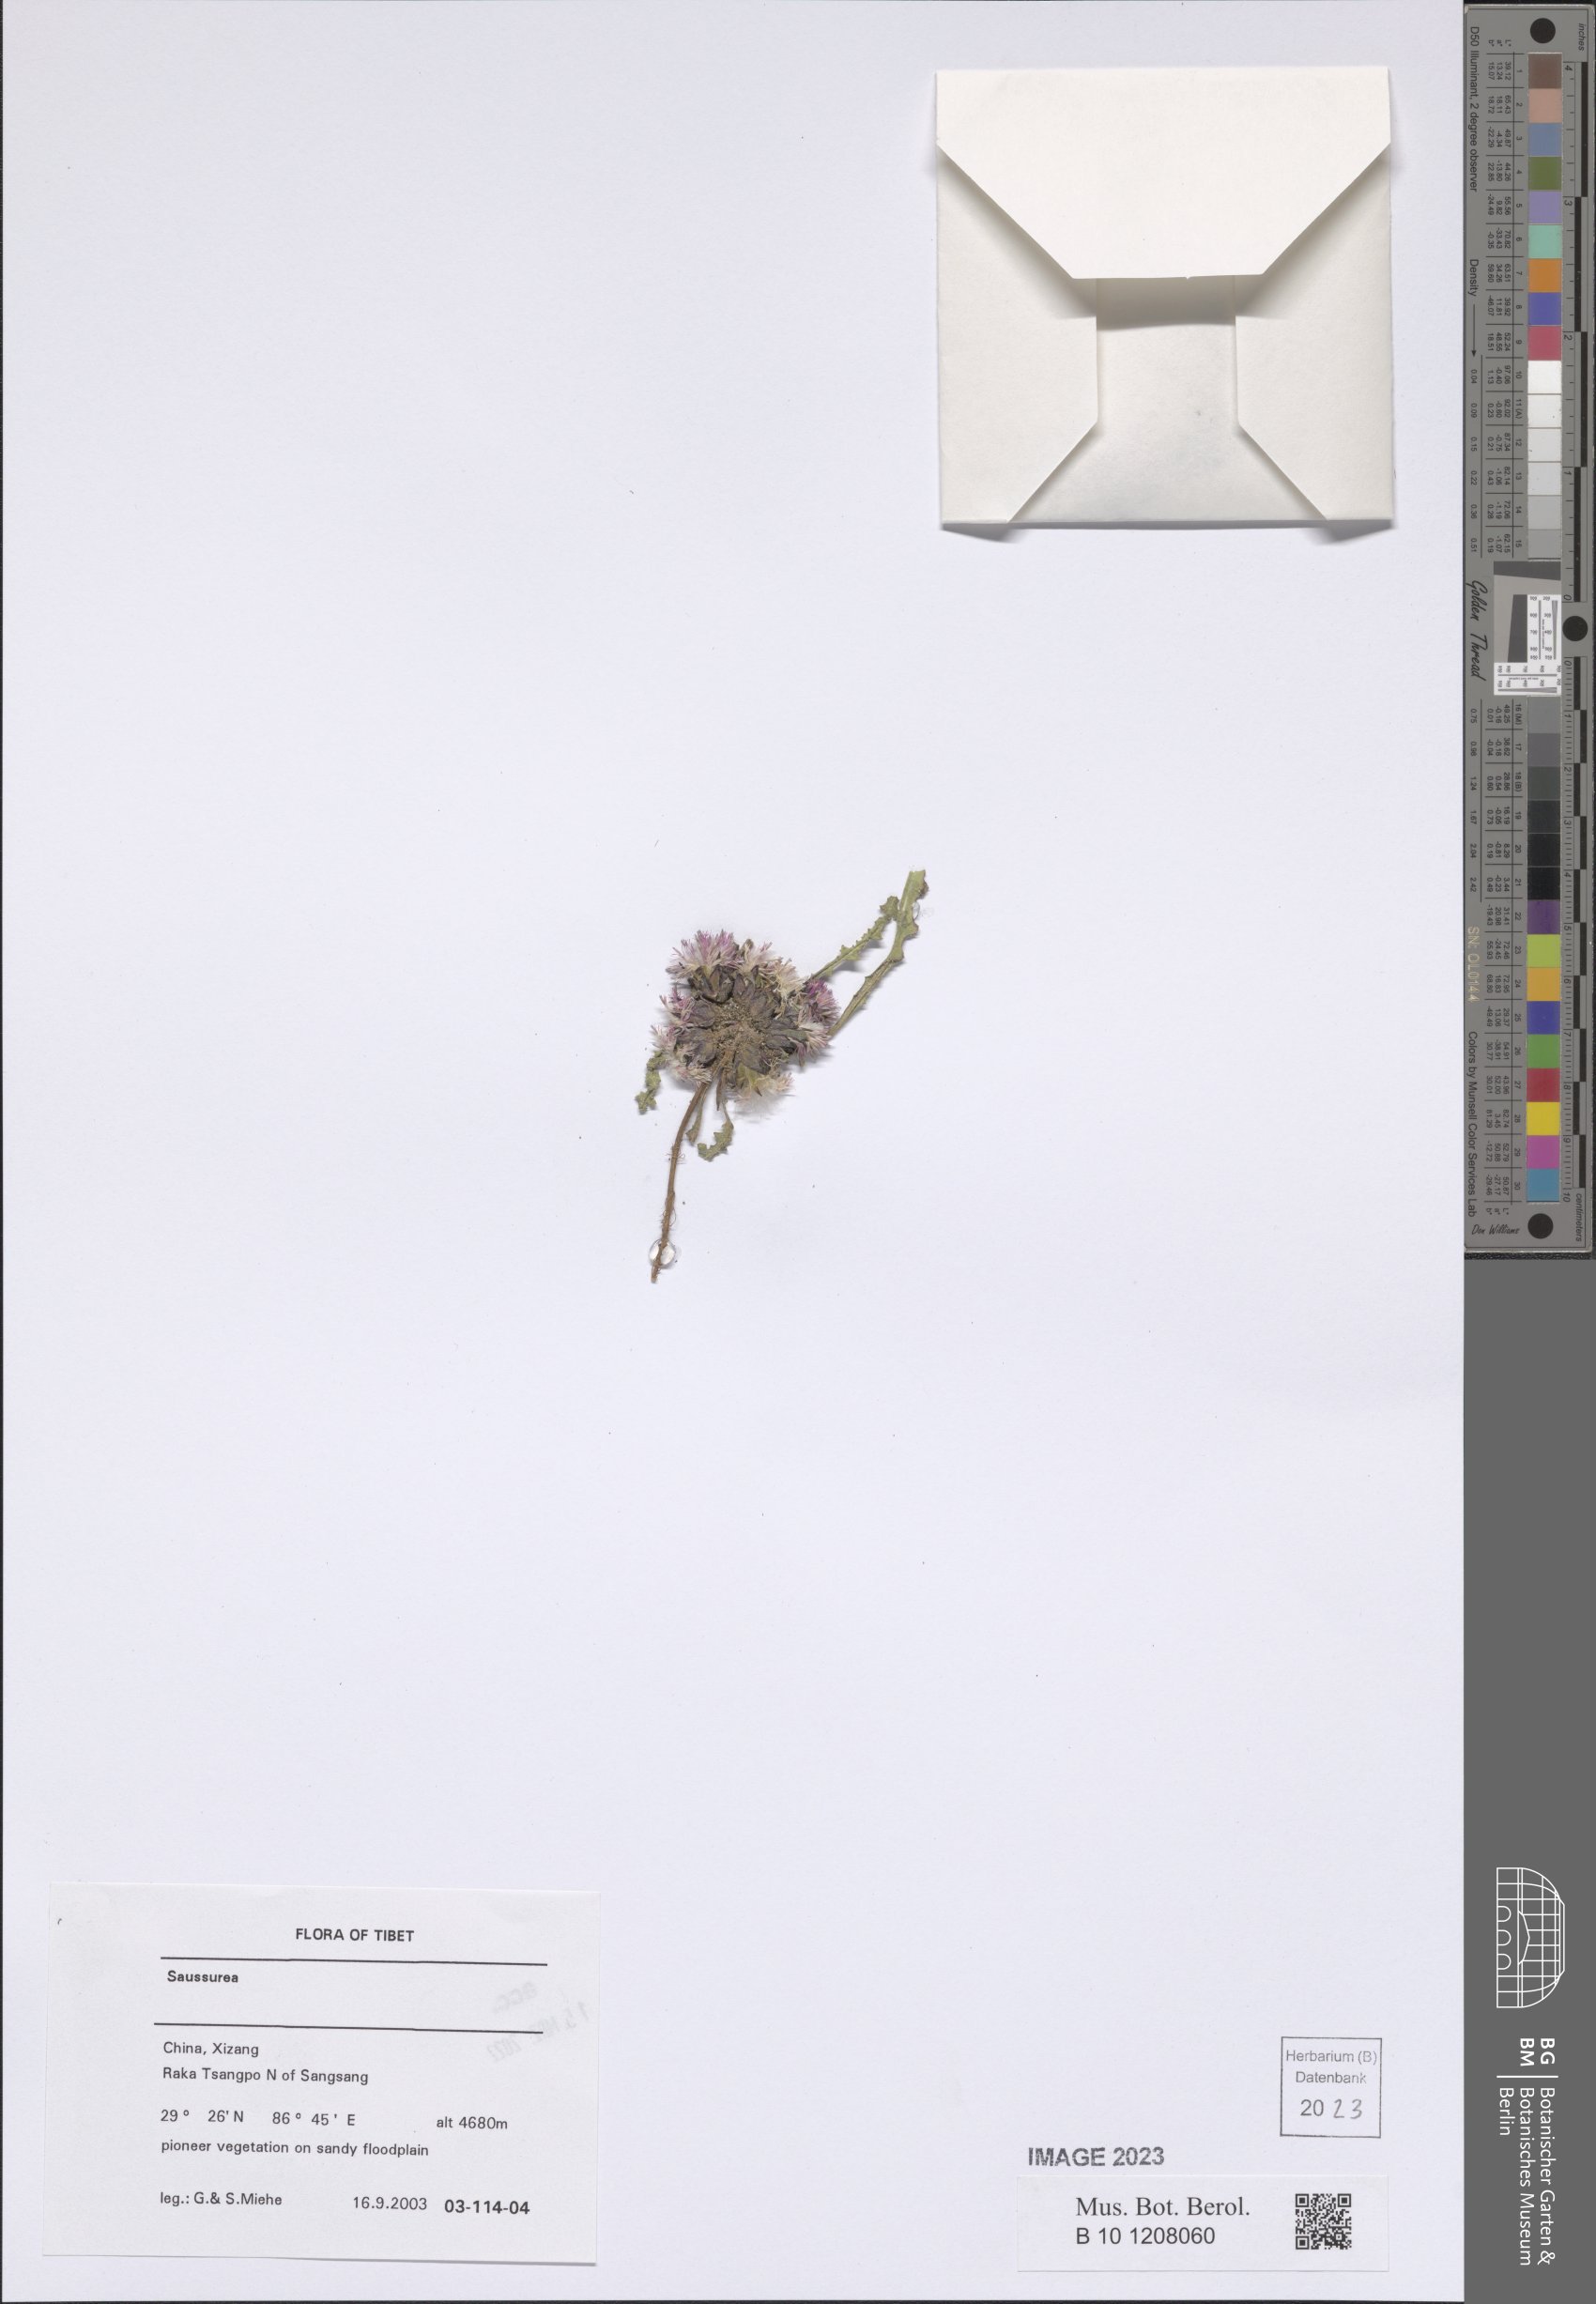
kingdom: Plantae
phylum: Tracheophyta
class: Magnoliopsida
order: Asterales
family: Asteraceae
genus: Saussurea
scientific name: Saussurea
